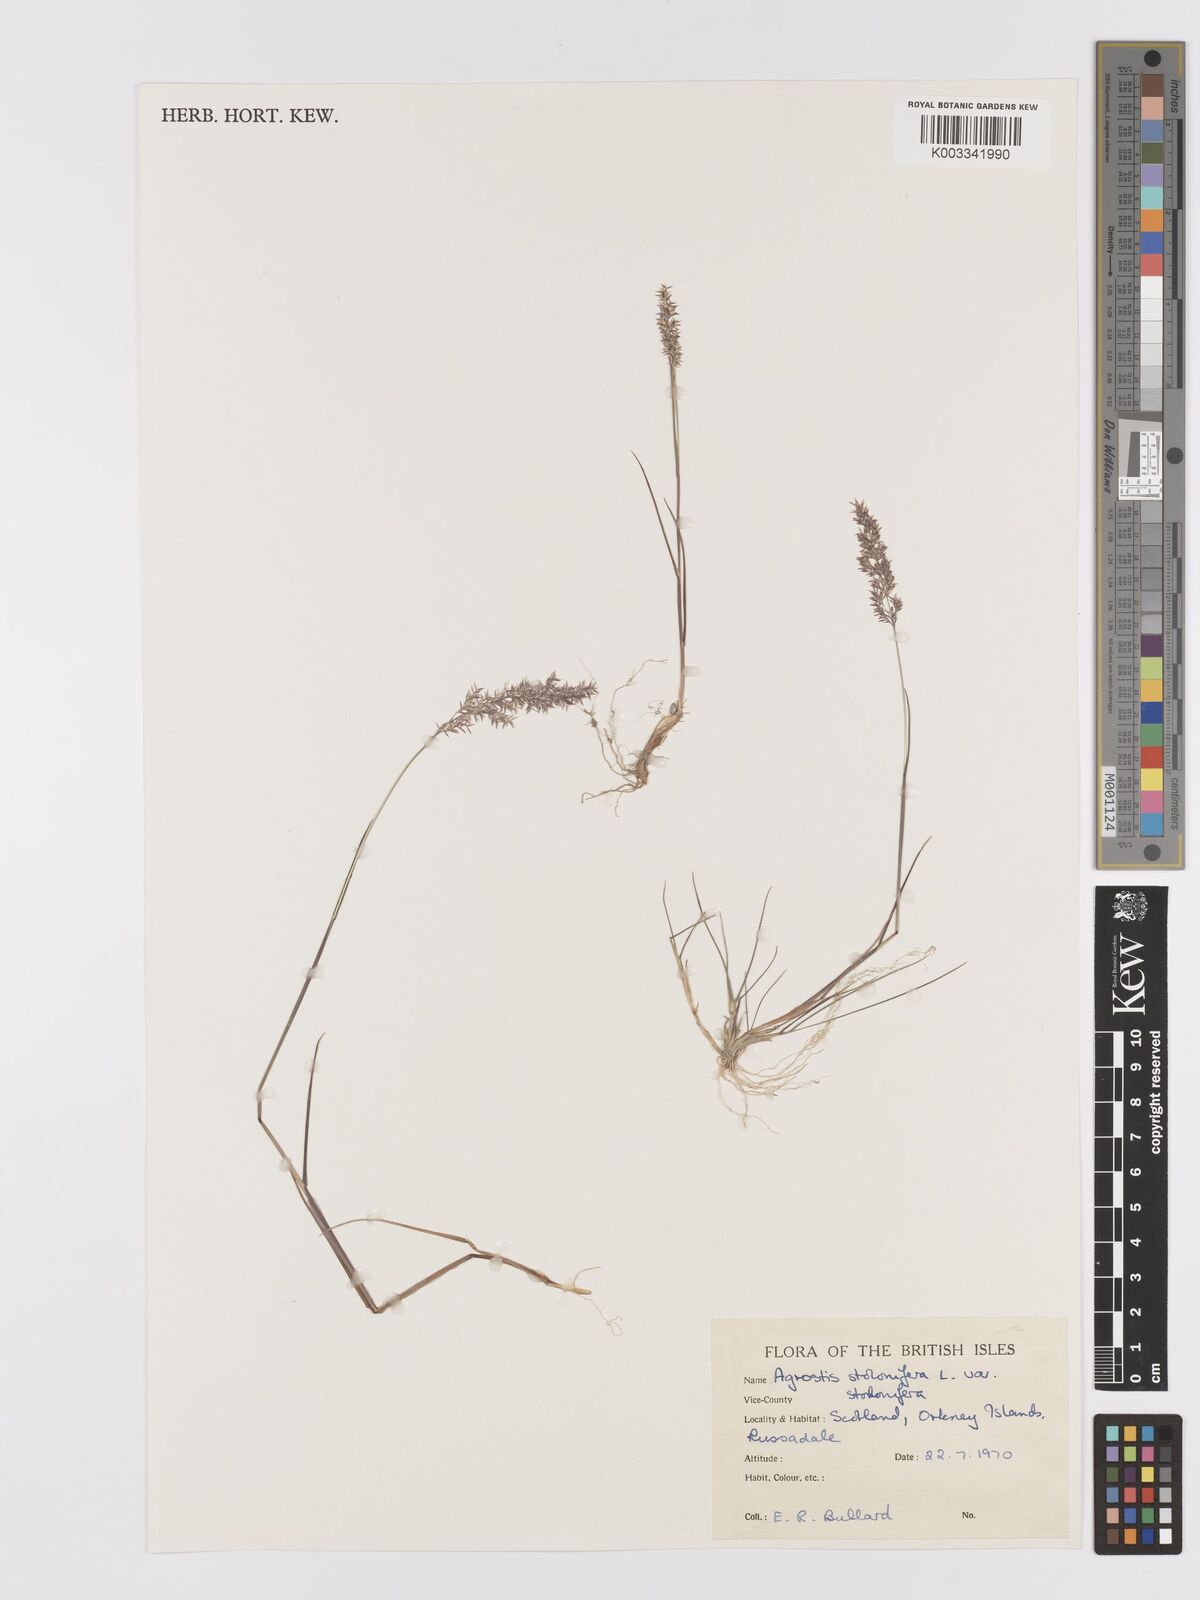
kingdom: Plantae
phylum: Tracheophyta
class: Liliopsida
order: Poales
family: Poaceae
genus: Agrostis
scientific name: Agrostis stolonifera
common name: Creeping bentgrass
